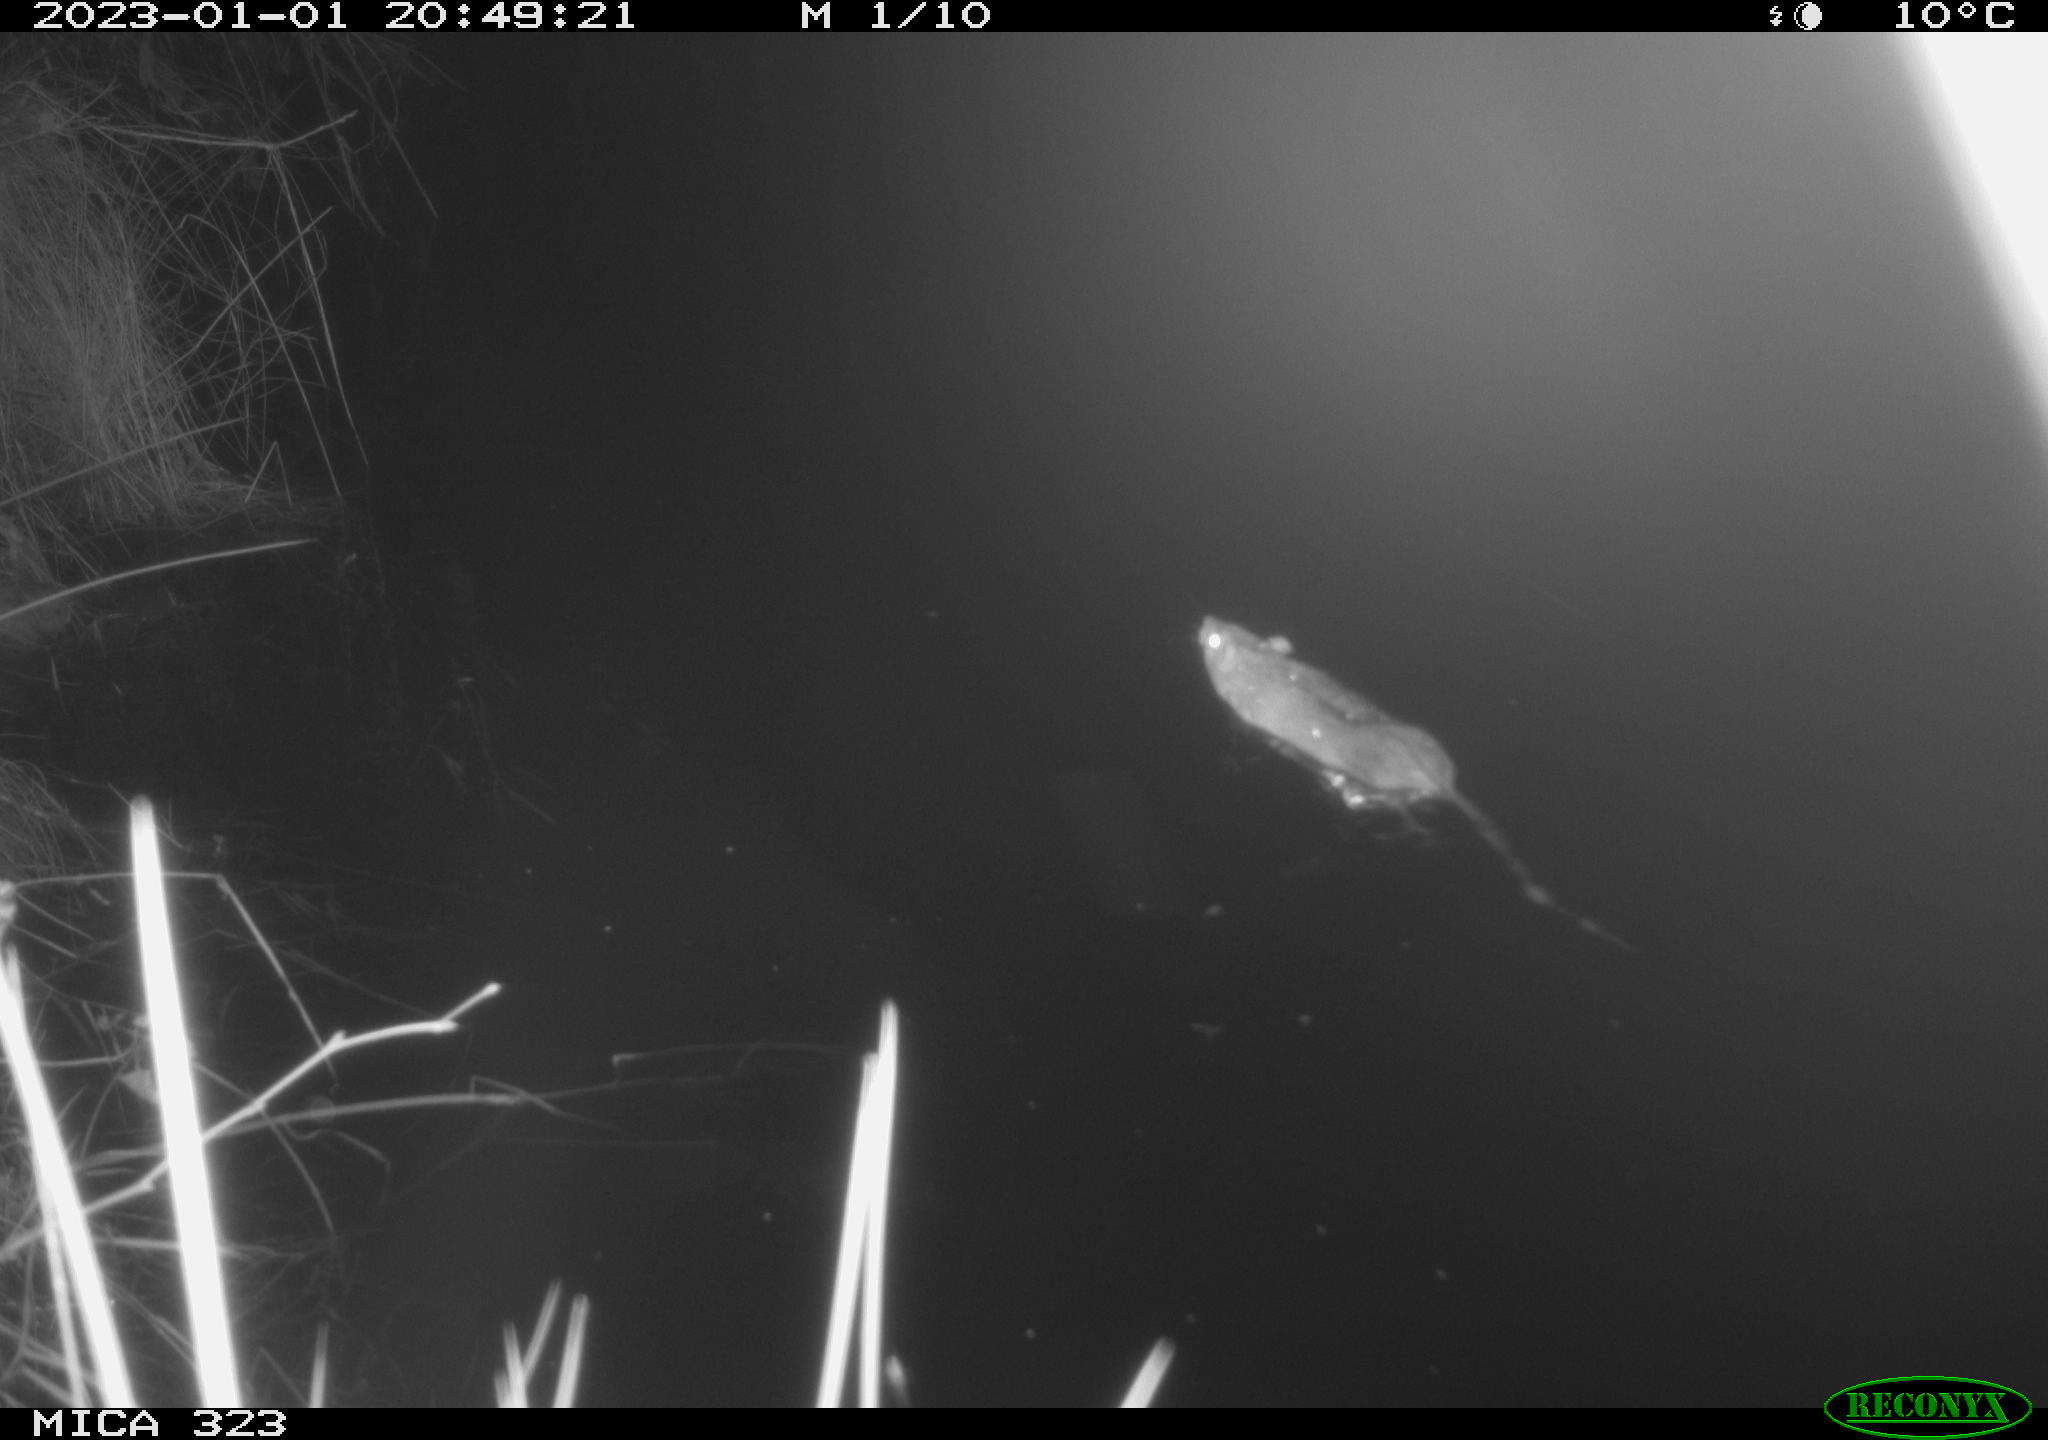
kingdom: Animalia
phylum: Chordata
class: Mammalia
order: Rodentia
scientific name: Rodentia
